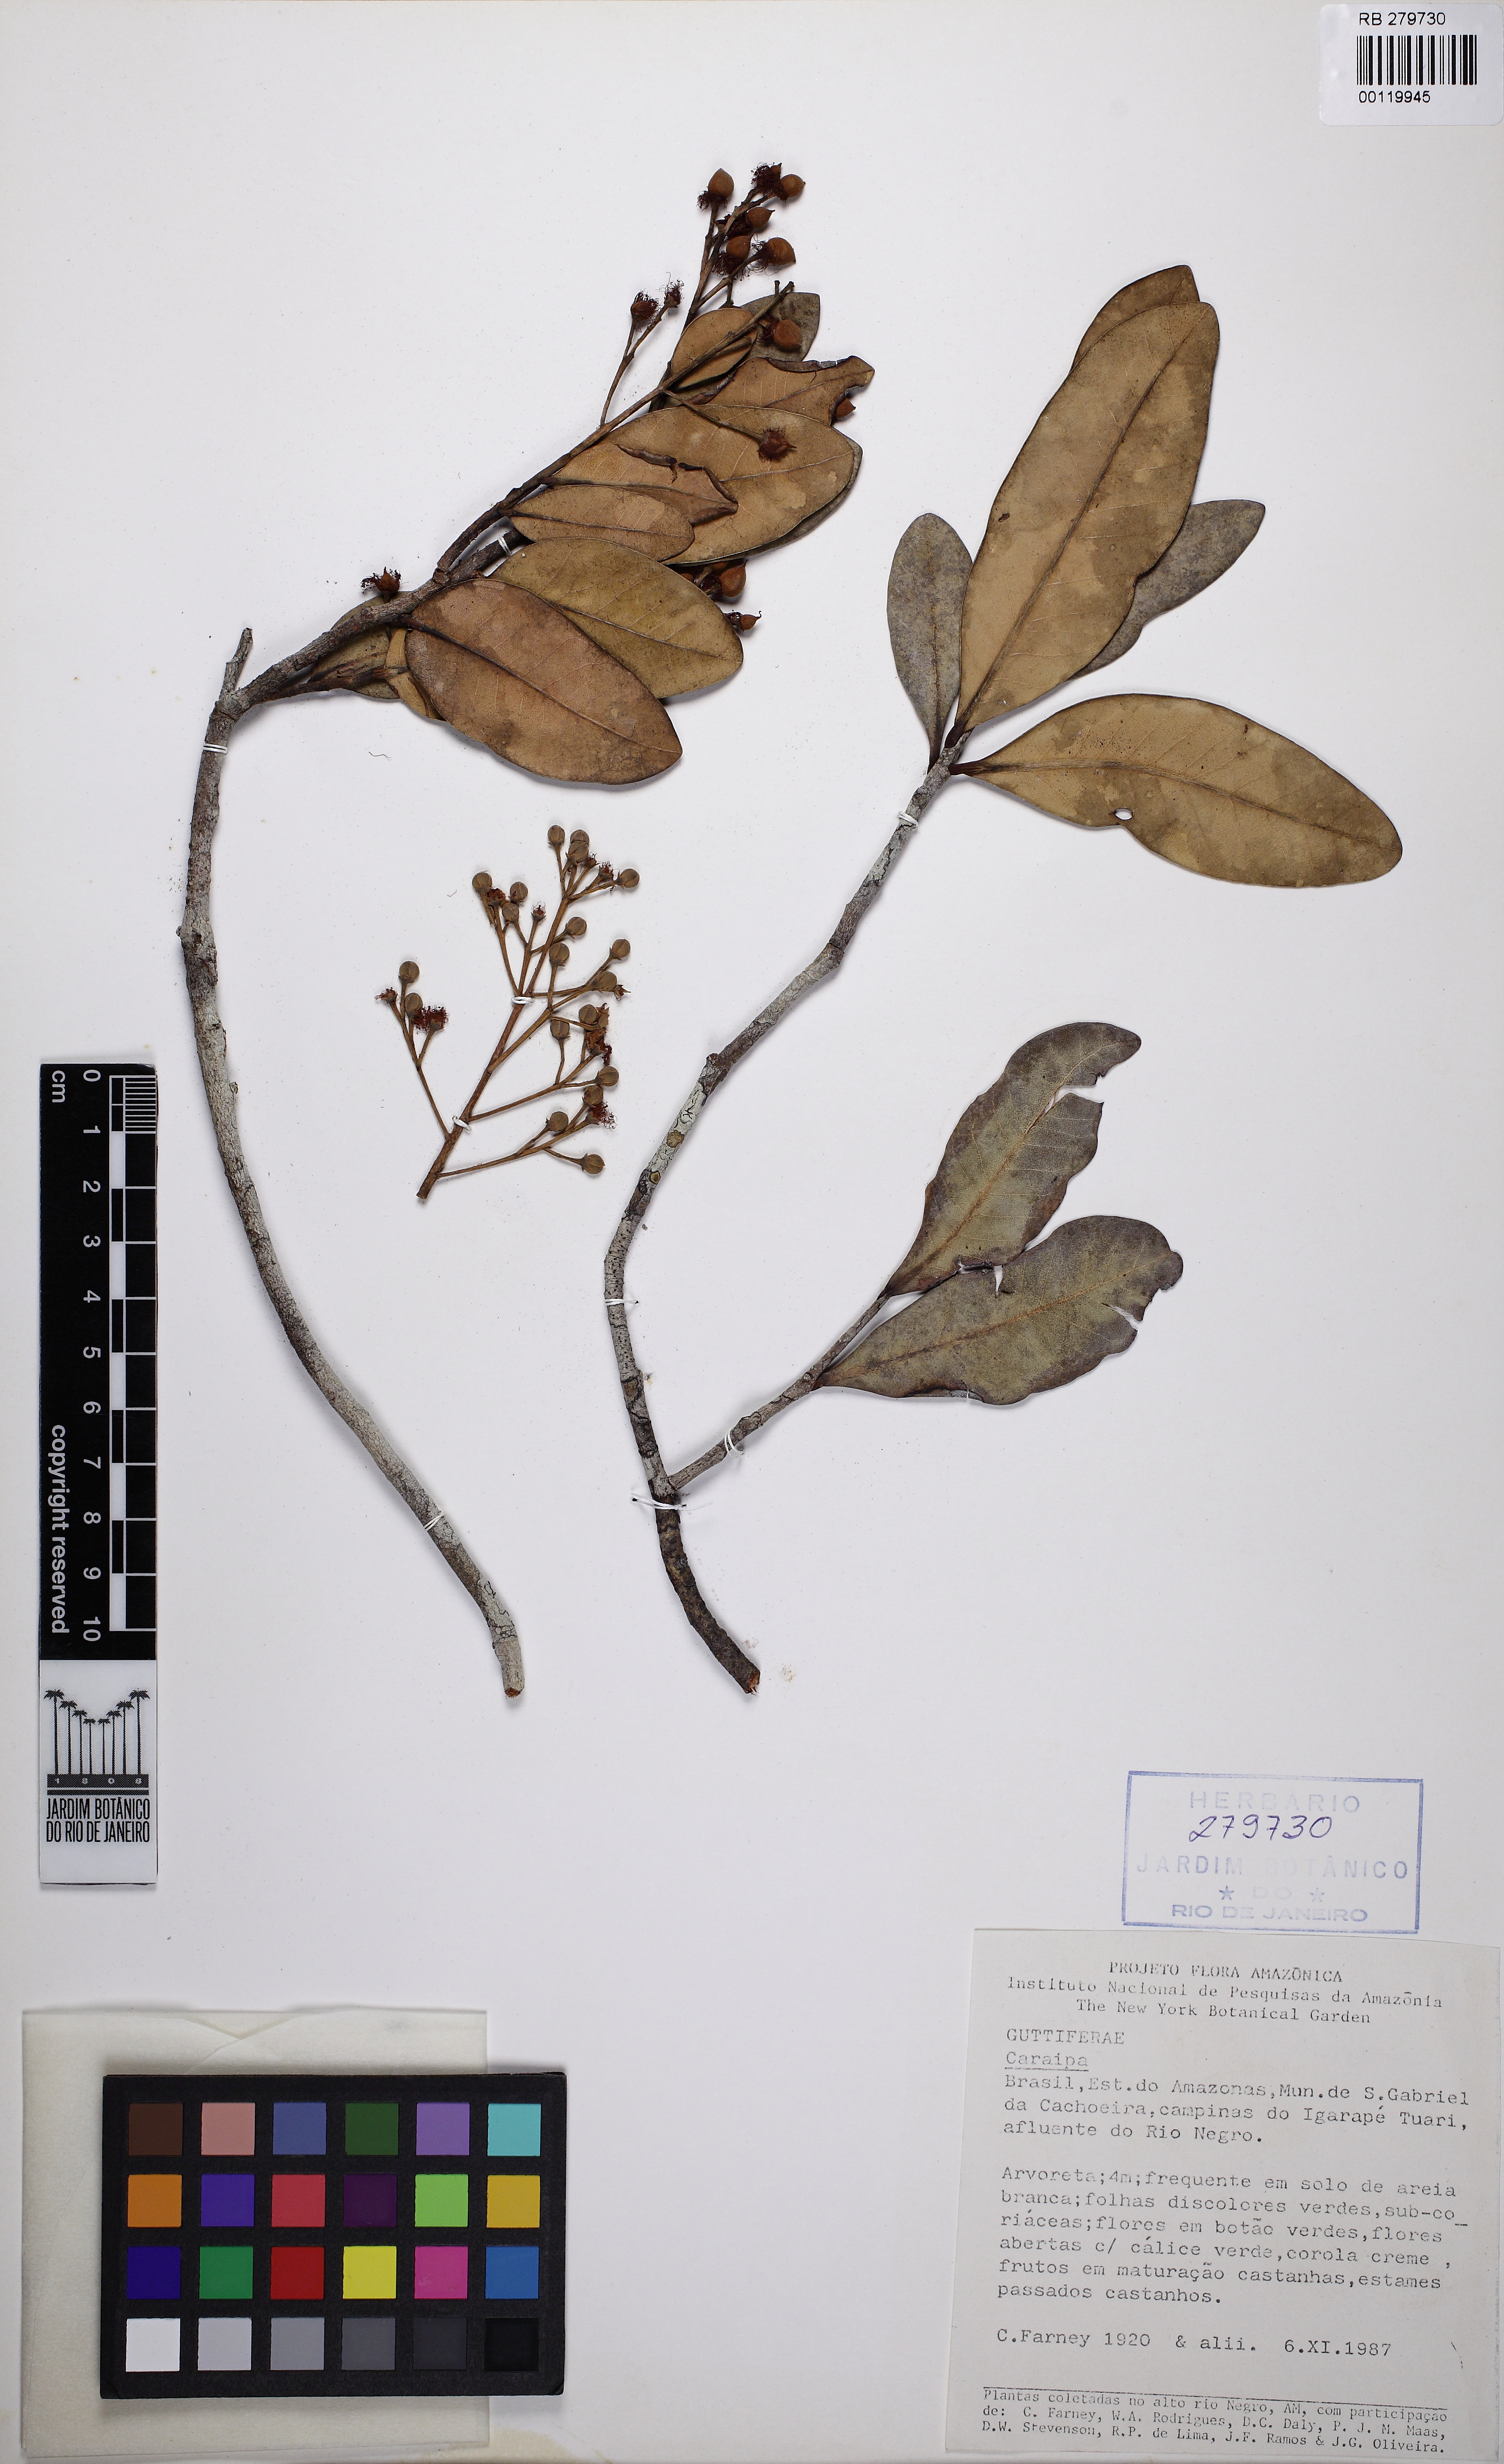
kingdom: Plantae
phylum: Tracheophyta
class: Magnoliopsida
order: Malpighiales
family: Calophyllaceae
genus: Caraipa
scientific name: Caraipa llanorum
